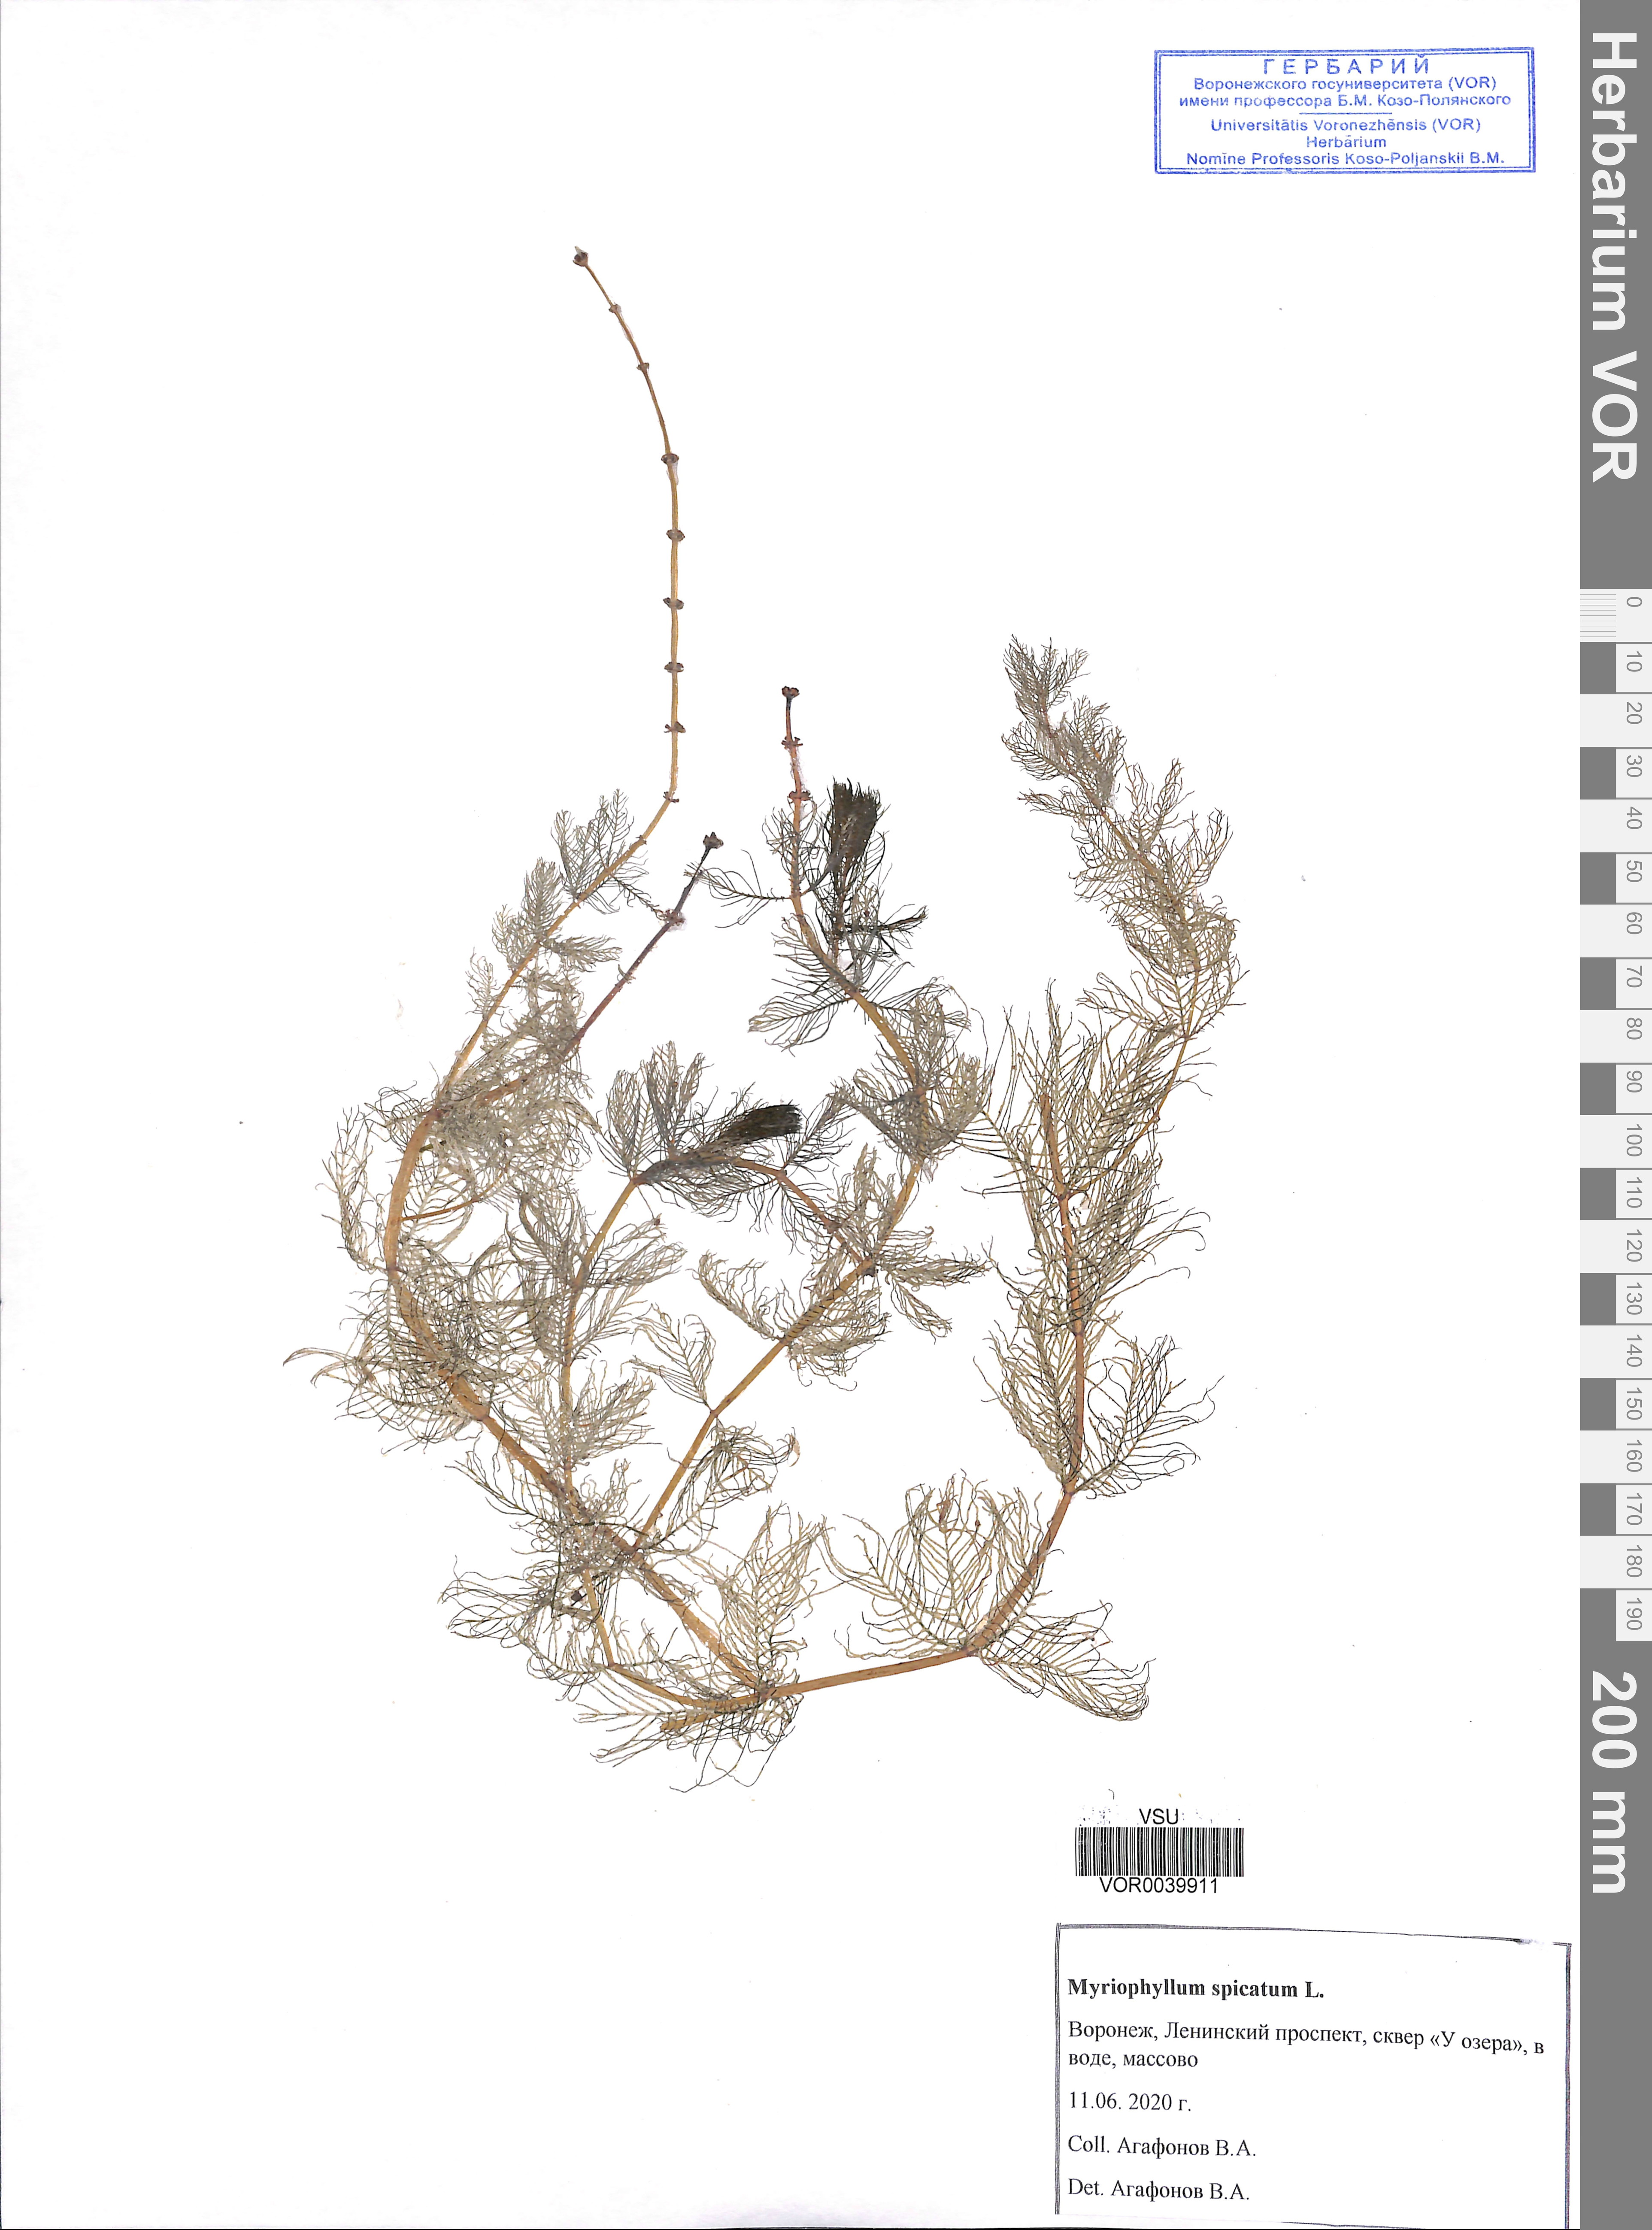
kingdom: Plantae
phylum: Tracheophyta
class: Magnoliopsida
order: Saxifragales
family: Haloragaceae
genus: Myriophyllum
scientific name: Myriophyllum spicatum
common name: Spiked water-milfoil
